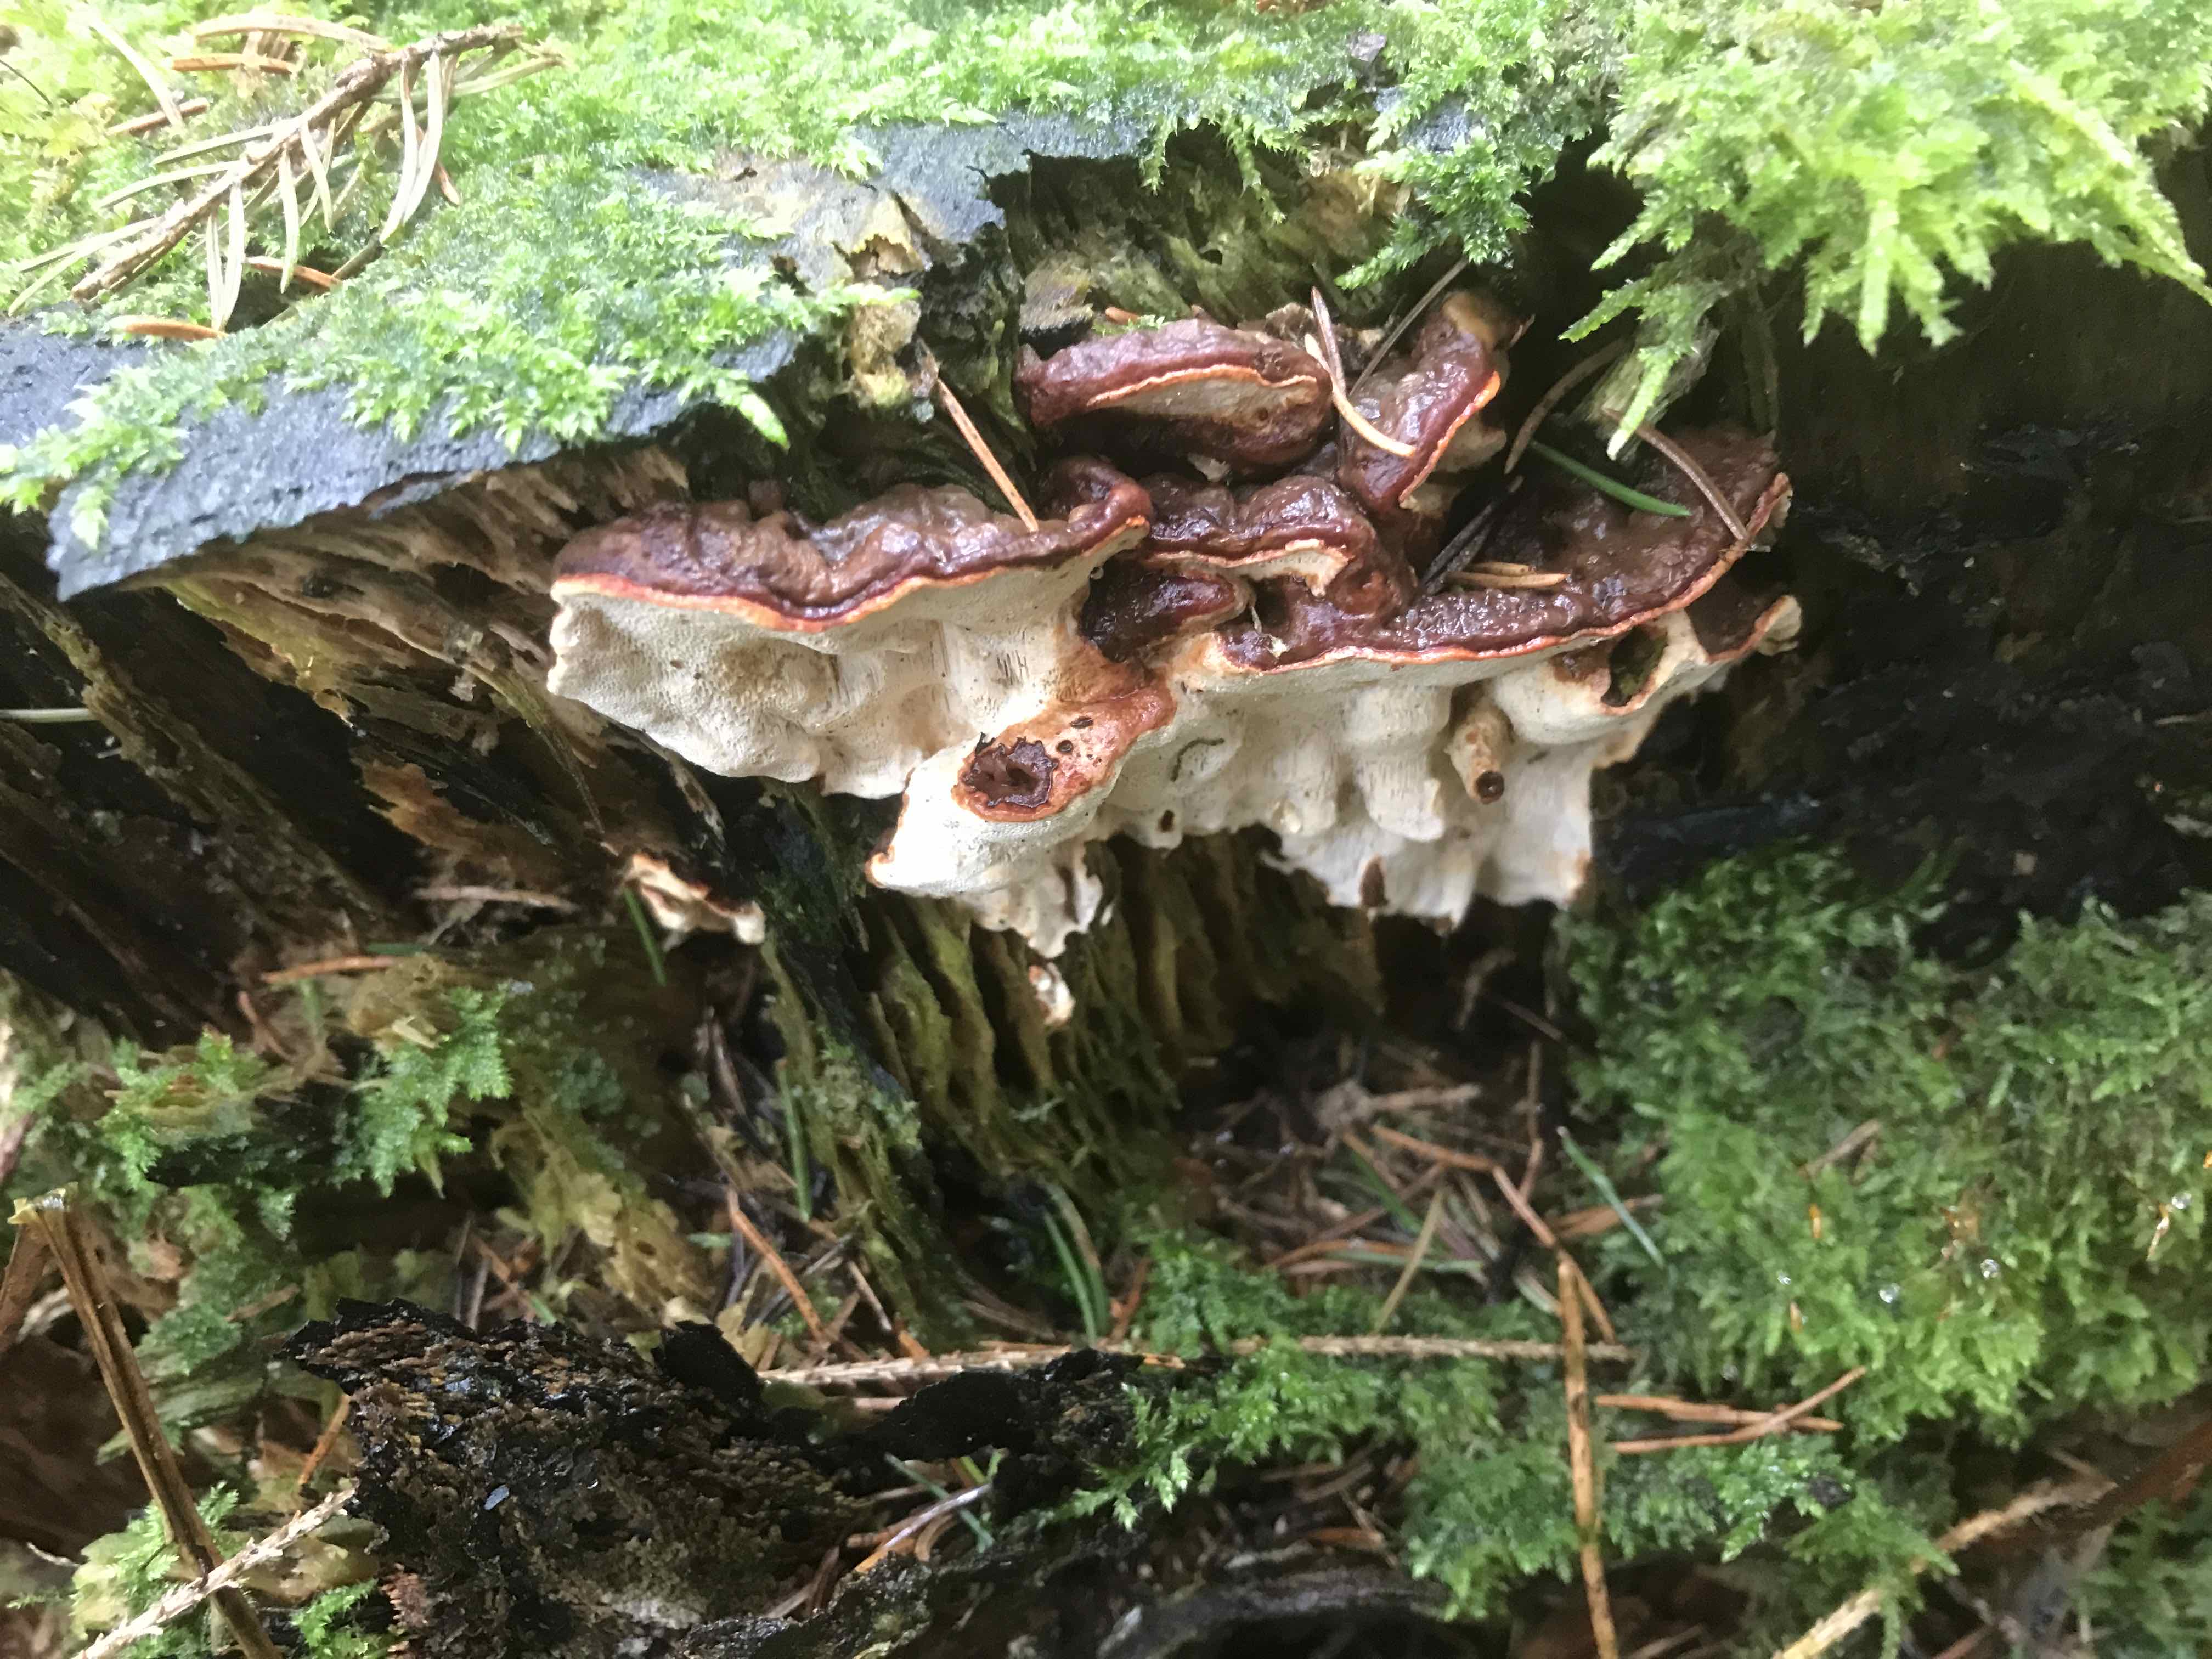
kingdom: Fungi
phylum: Basidiomycota
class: Agaricomycetes
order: Russulales
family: Bondarzewiaceae
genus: Heterobasidion
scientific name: Heterobasidion annosum
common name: almindelig rodfordærver
